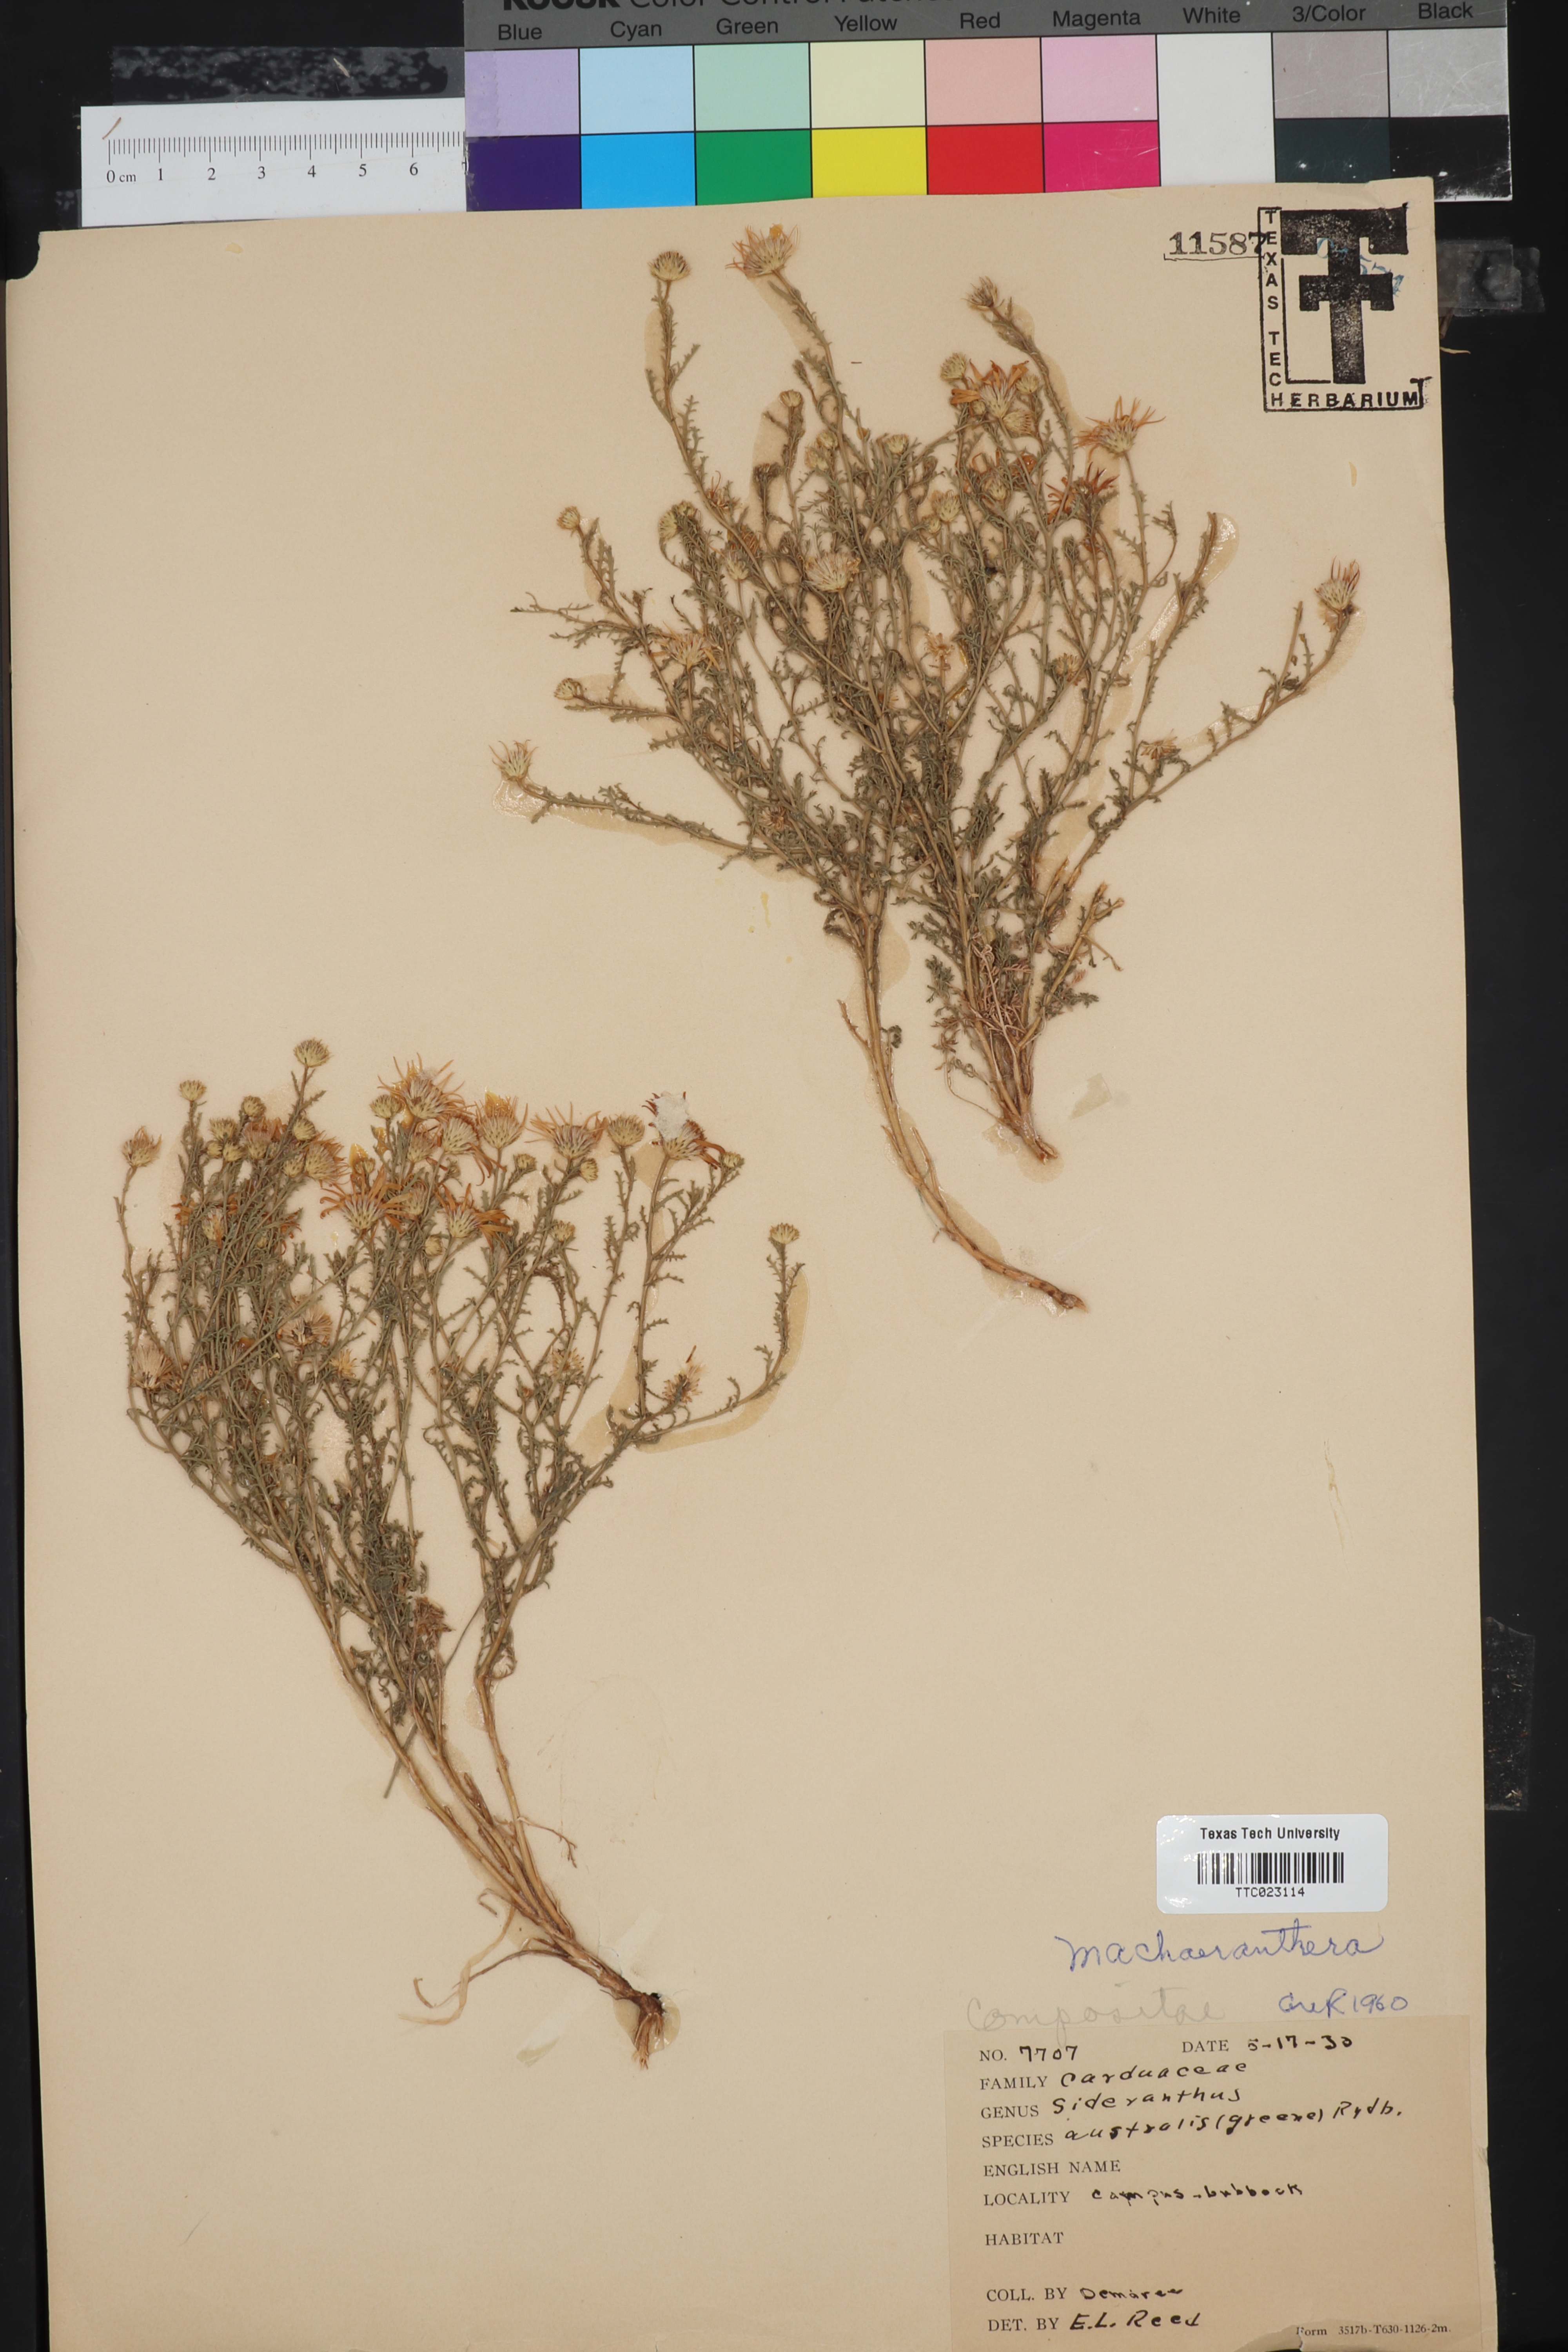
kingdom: Plantae
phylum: Tracheophyta
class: Magnoliopsida
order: Asterales
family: Asteraceae
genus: Xanthisma
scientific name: Xanthisma spinulosum
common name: Spiny goldenweed
